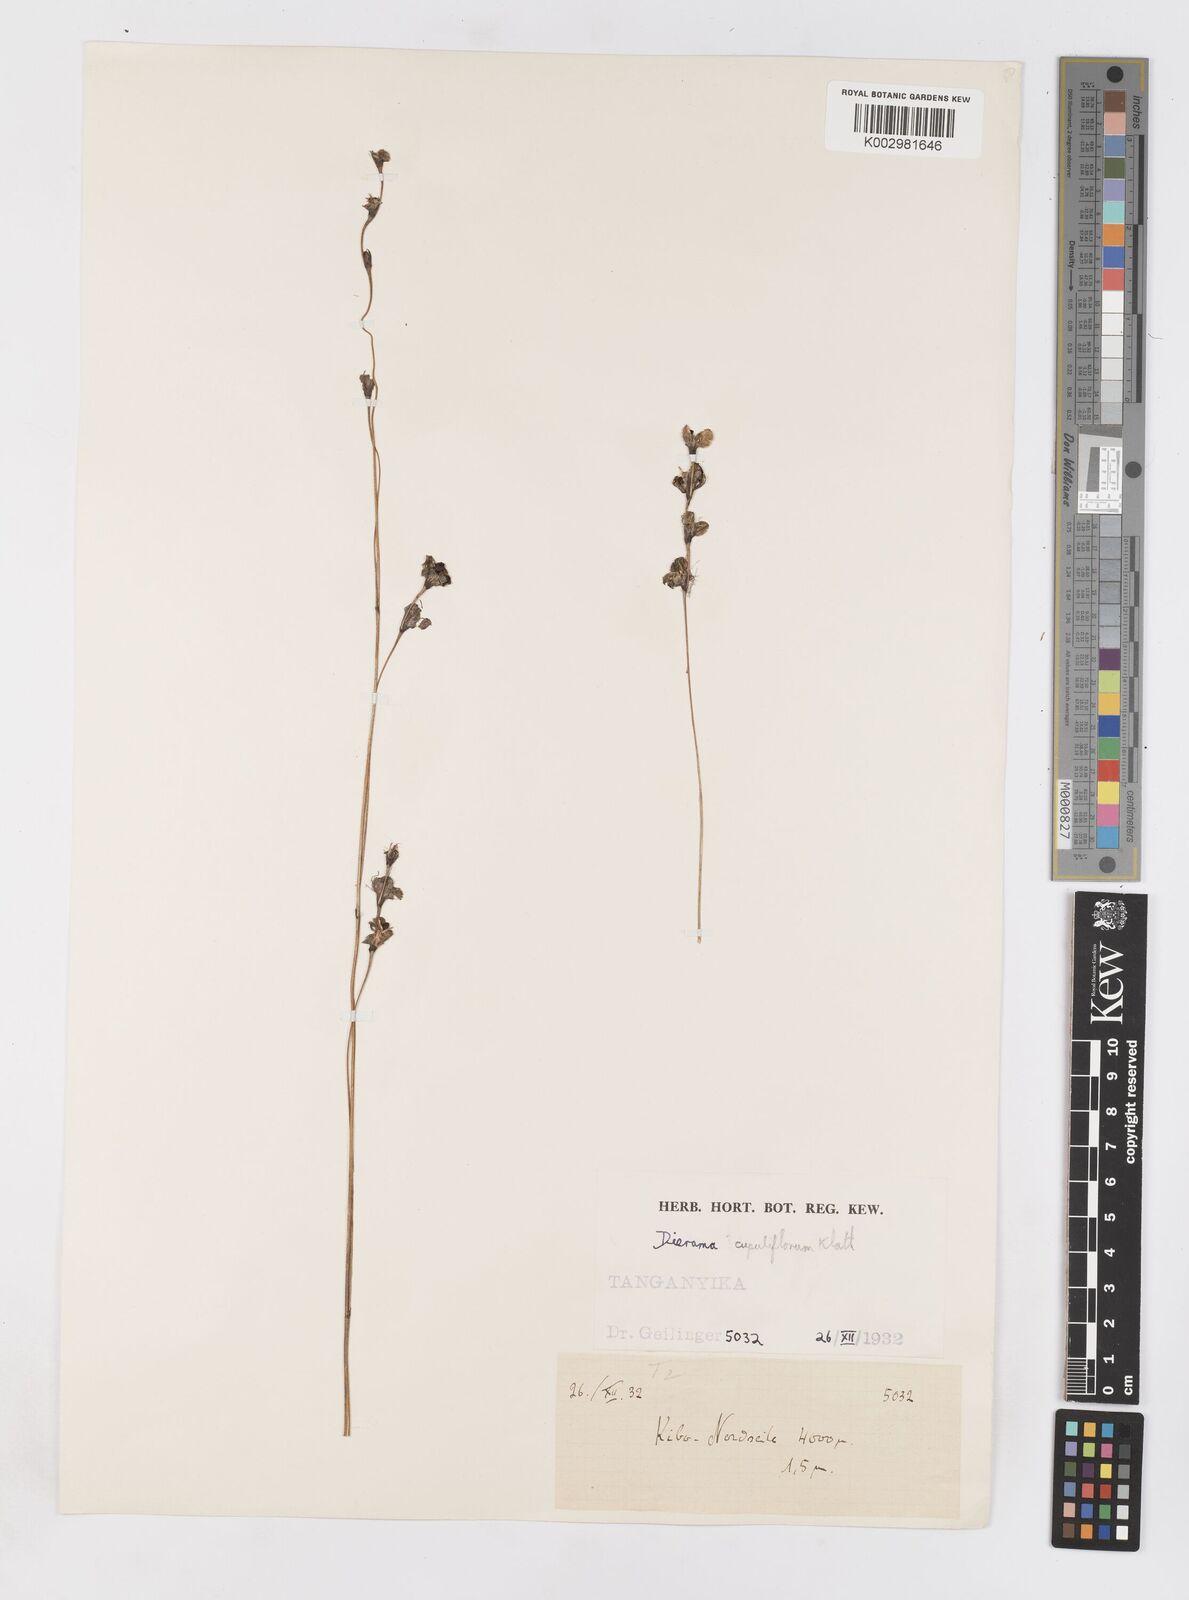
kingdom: Plantae
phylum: Tracheophyta
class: Liliopsida
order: Asparagales
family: Iridaceae
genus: Dierama
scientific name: Dierama cupuliflorum
